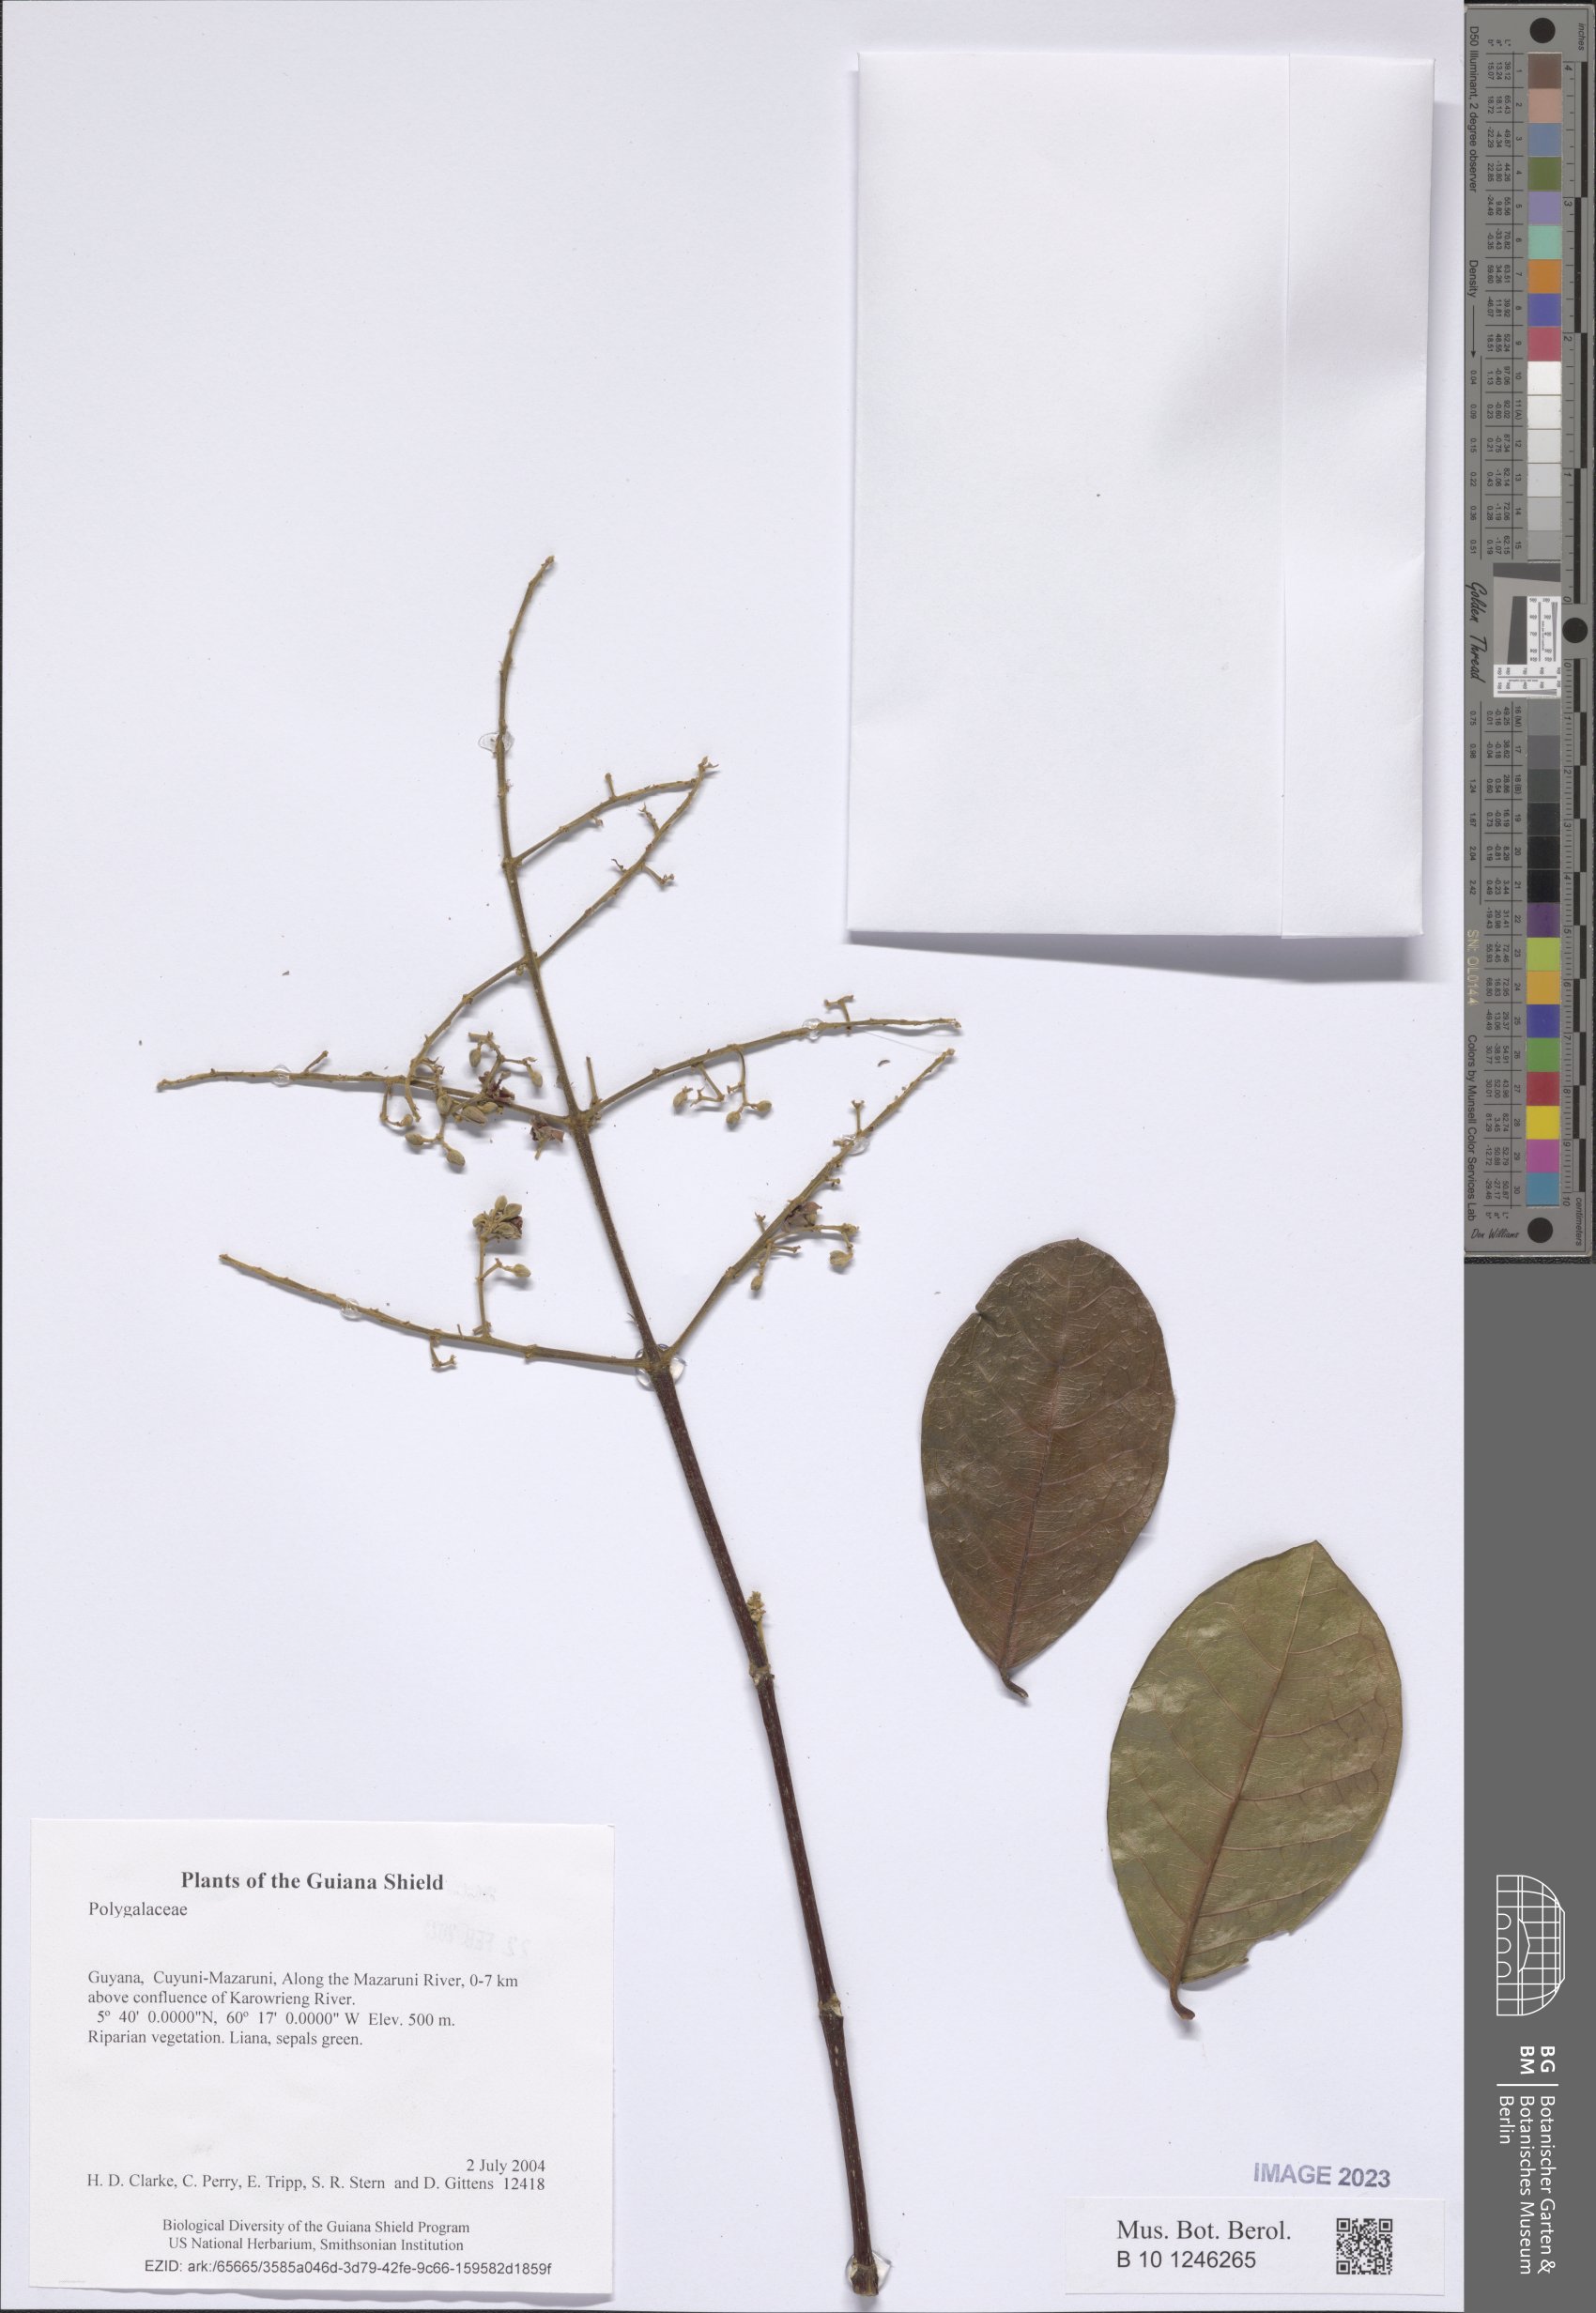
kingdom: Plantae
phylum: Tracheophyta
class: Magnoliopsida
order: Fabales
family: Polygalaceae
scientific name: Polygalaceae
